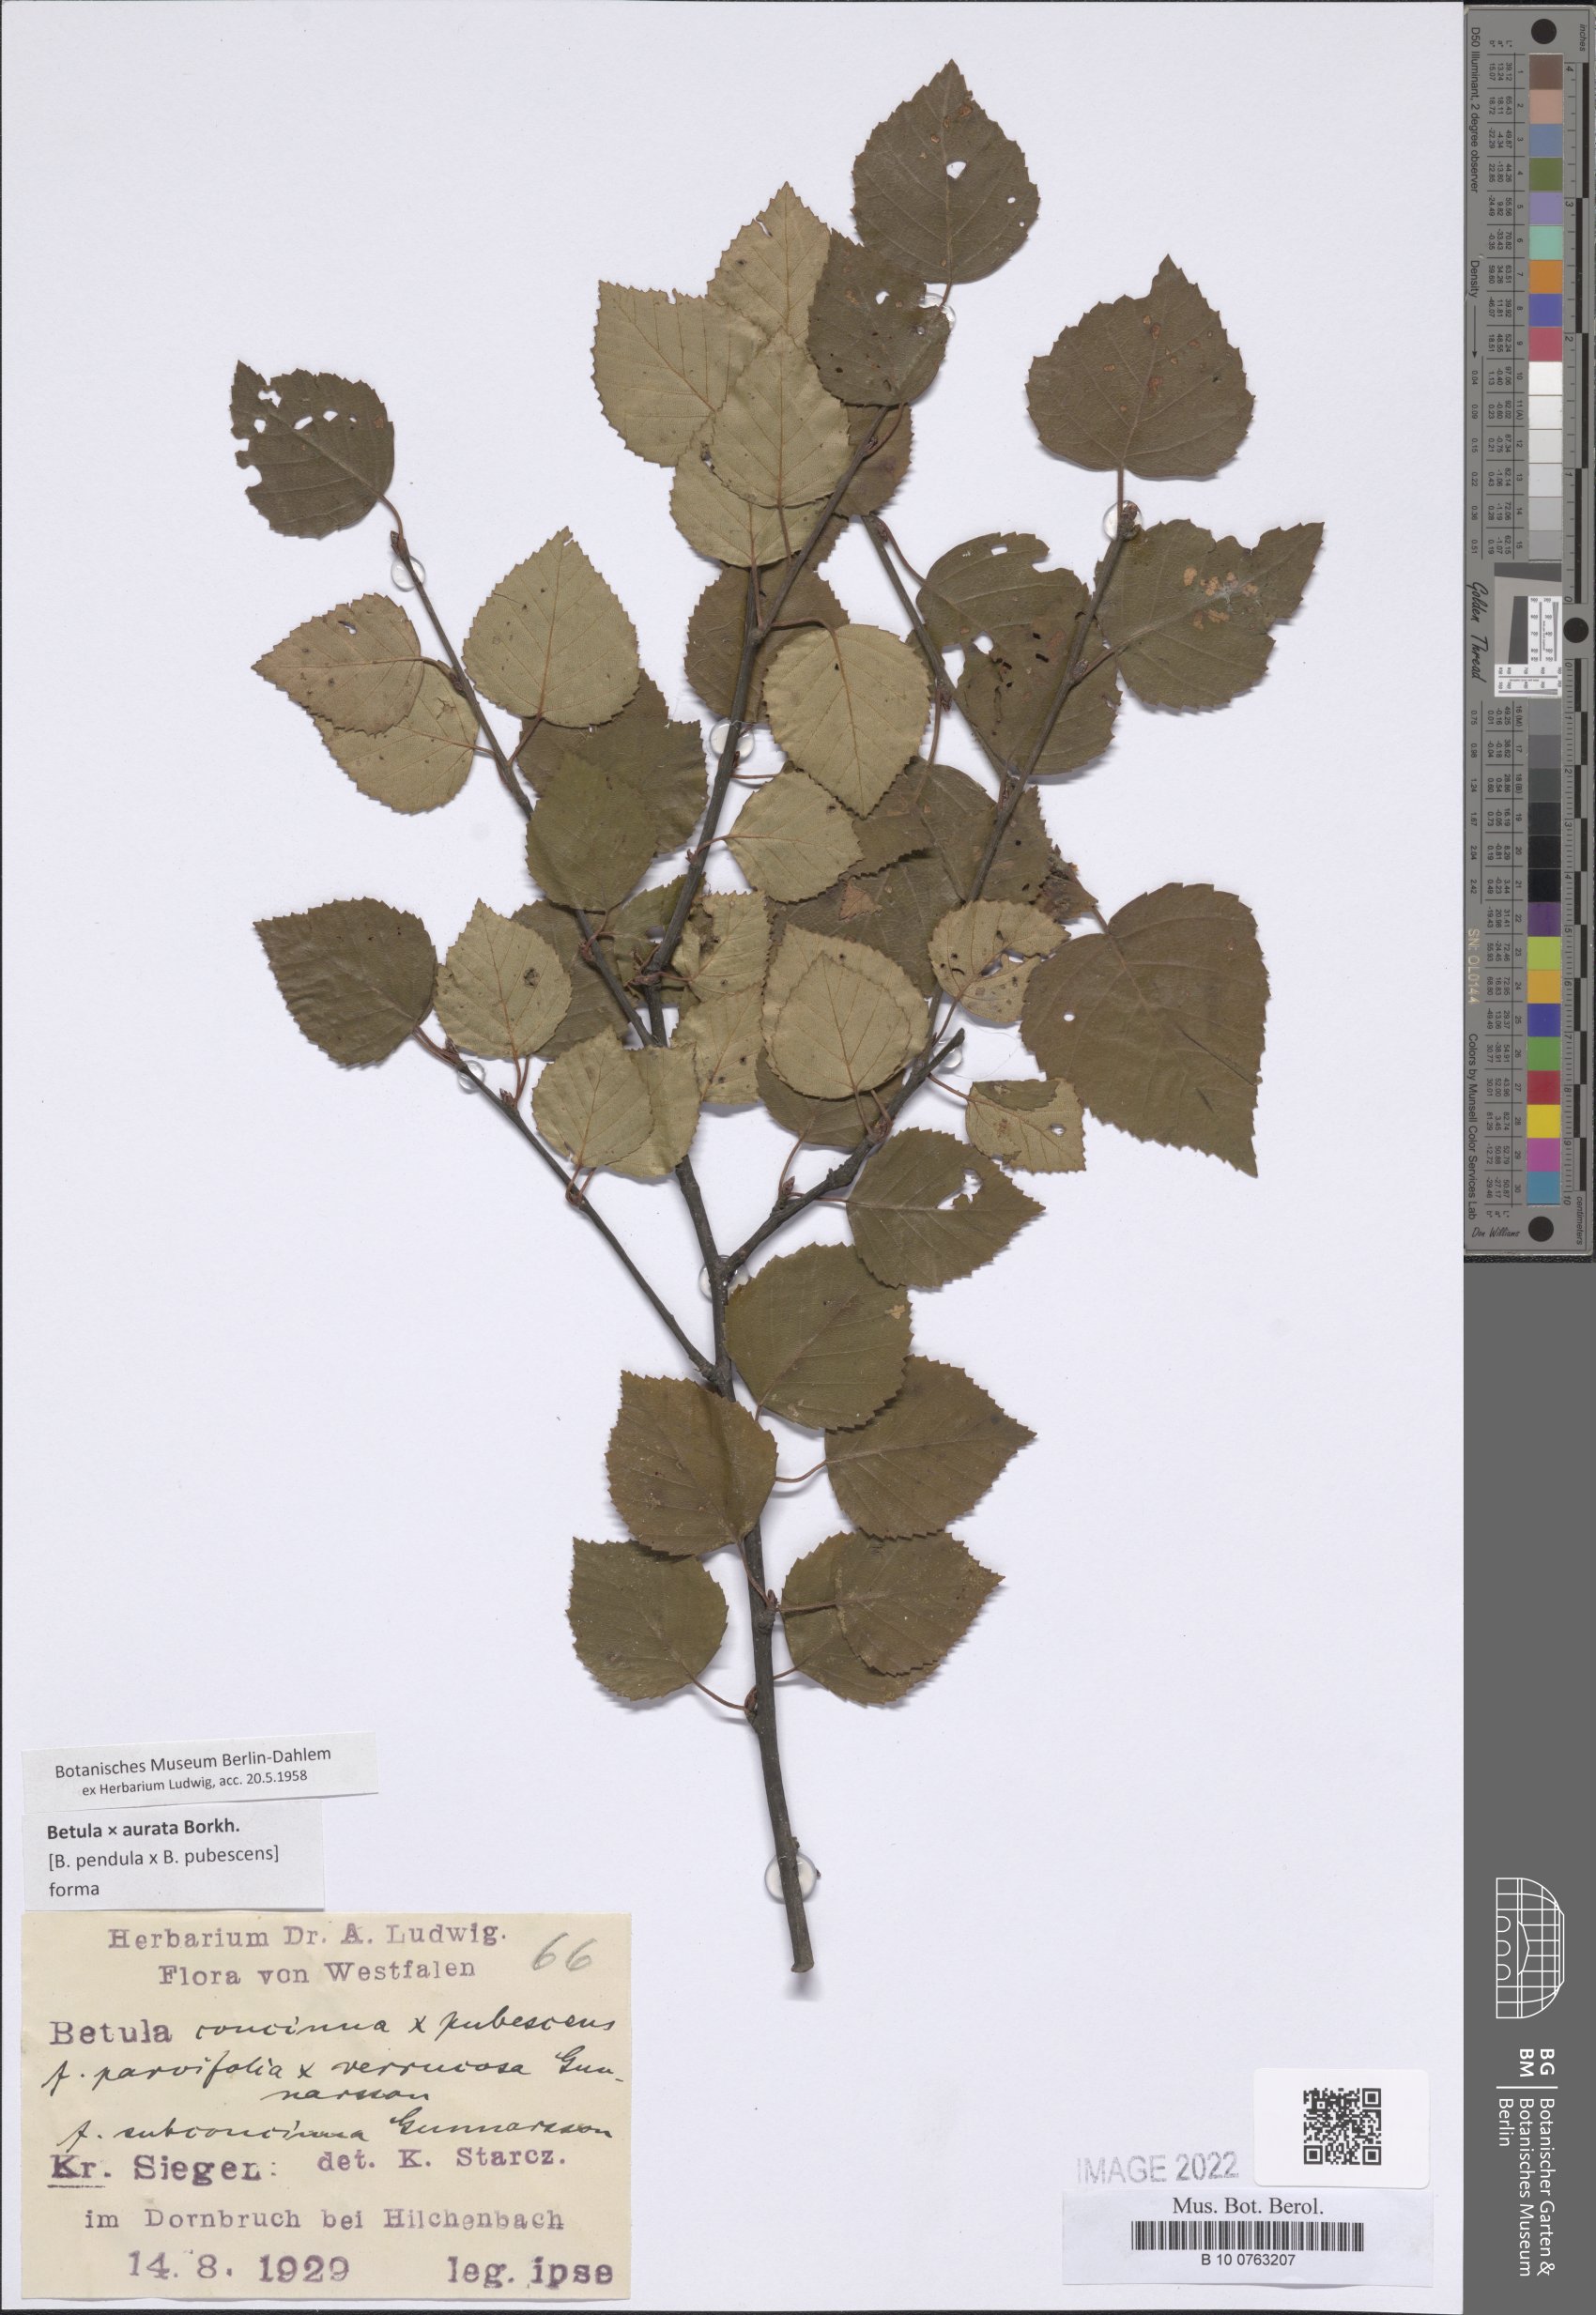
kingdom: Plantae
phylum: Tracheophyta
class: Polypodiopsida
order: Polypodiales
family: Pteridaceae
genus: Cheilanthes
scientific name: Cheilanthes
